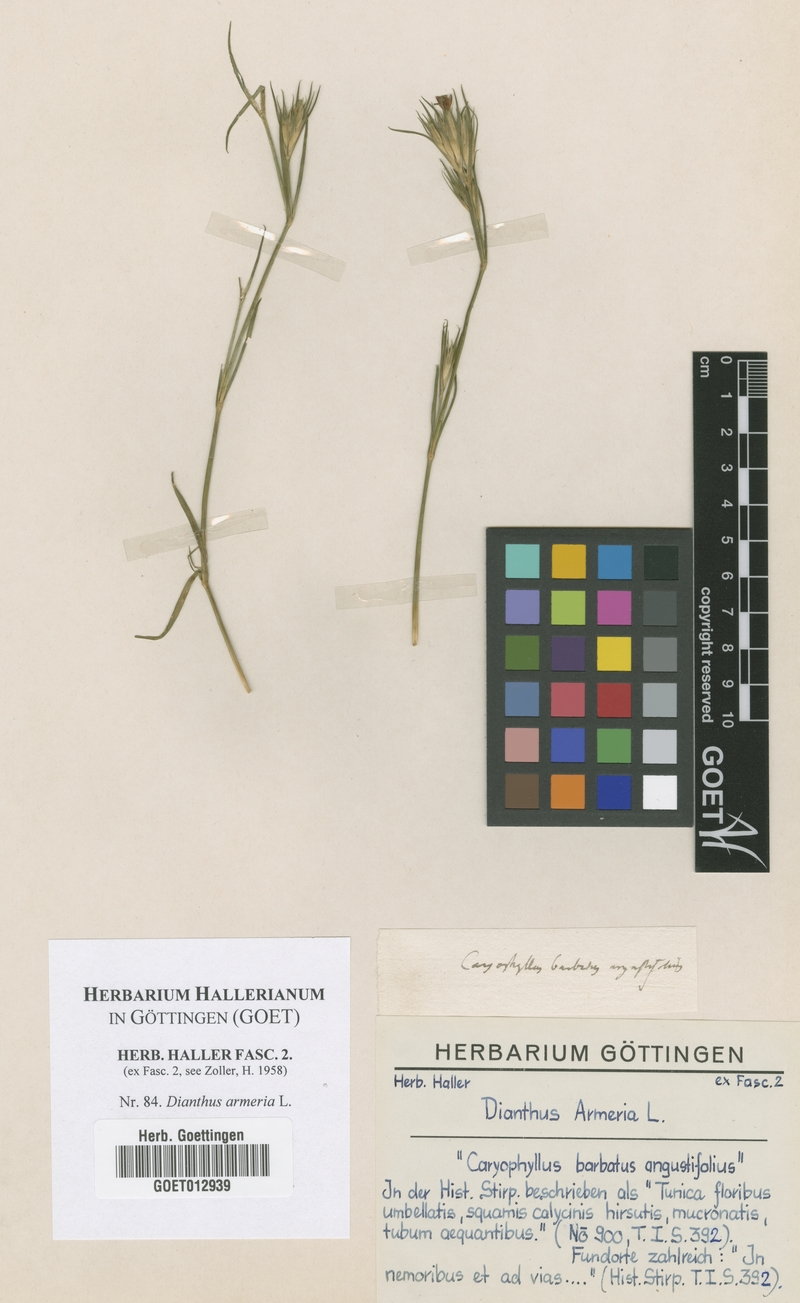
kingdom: Plantae
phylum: Tracheophyta
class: Magnoliopsida
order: Caryophyllales
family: Caryophyllaceae
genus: Dianthus
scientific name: Dianthus armeria
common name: Deptford pink
